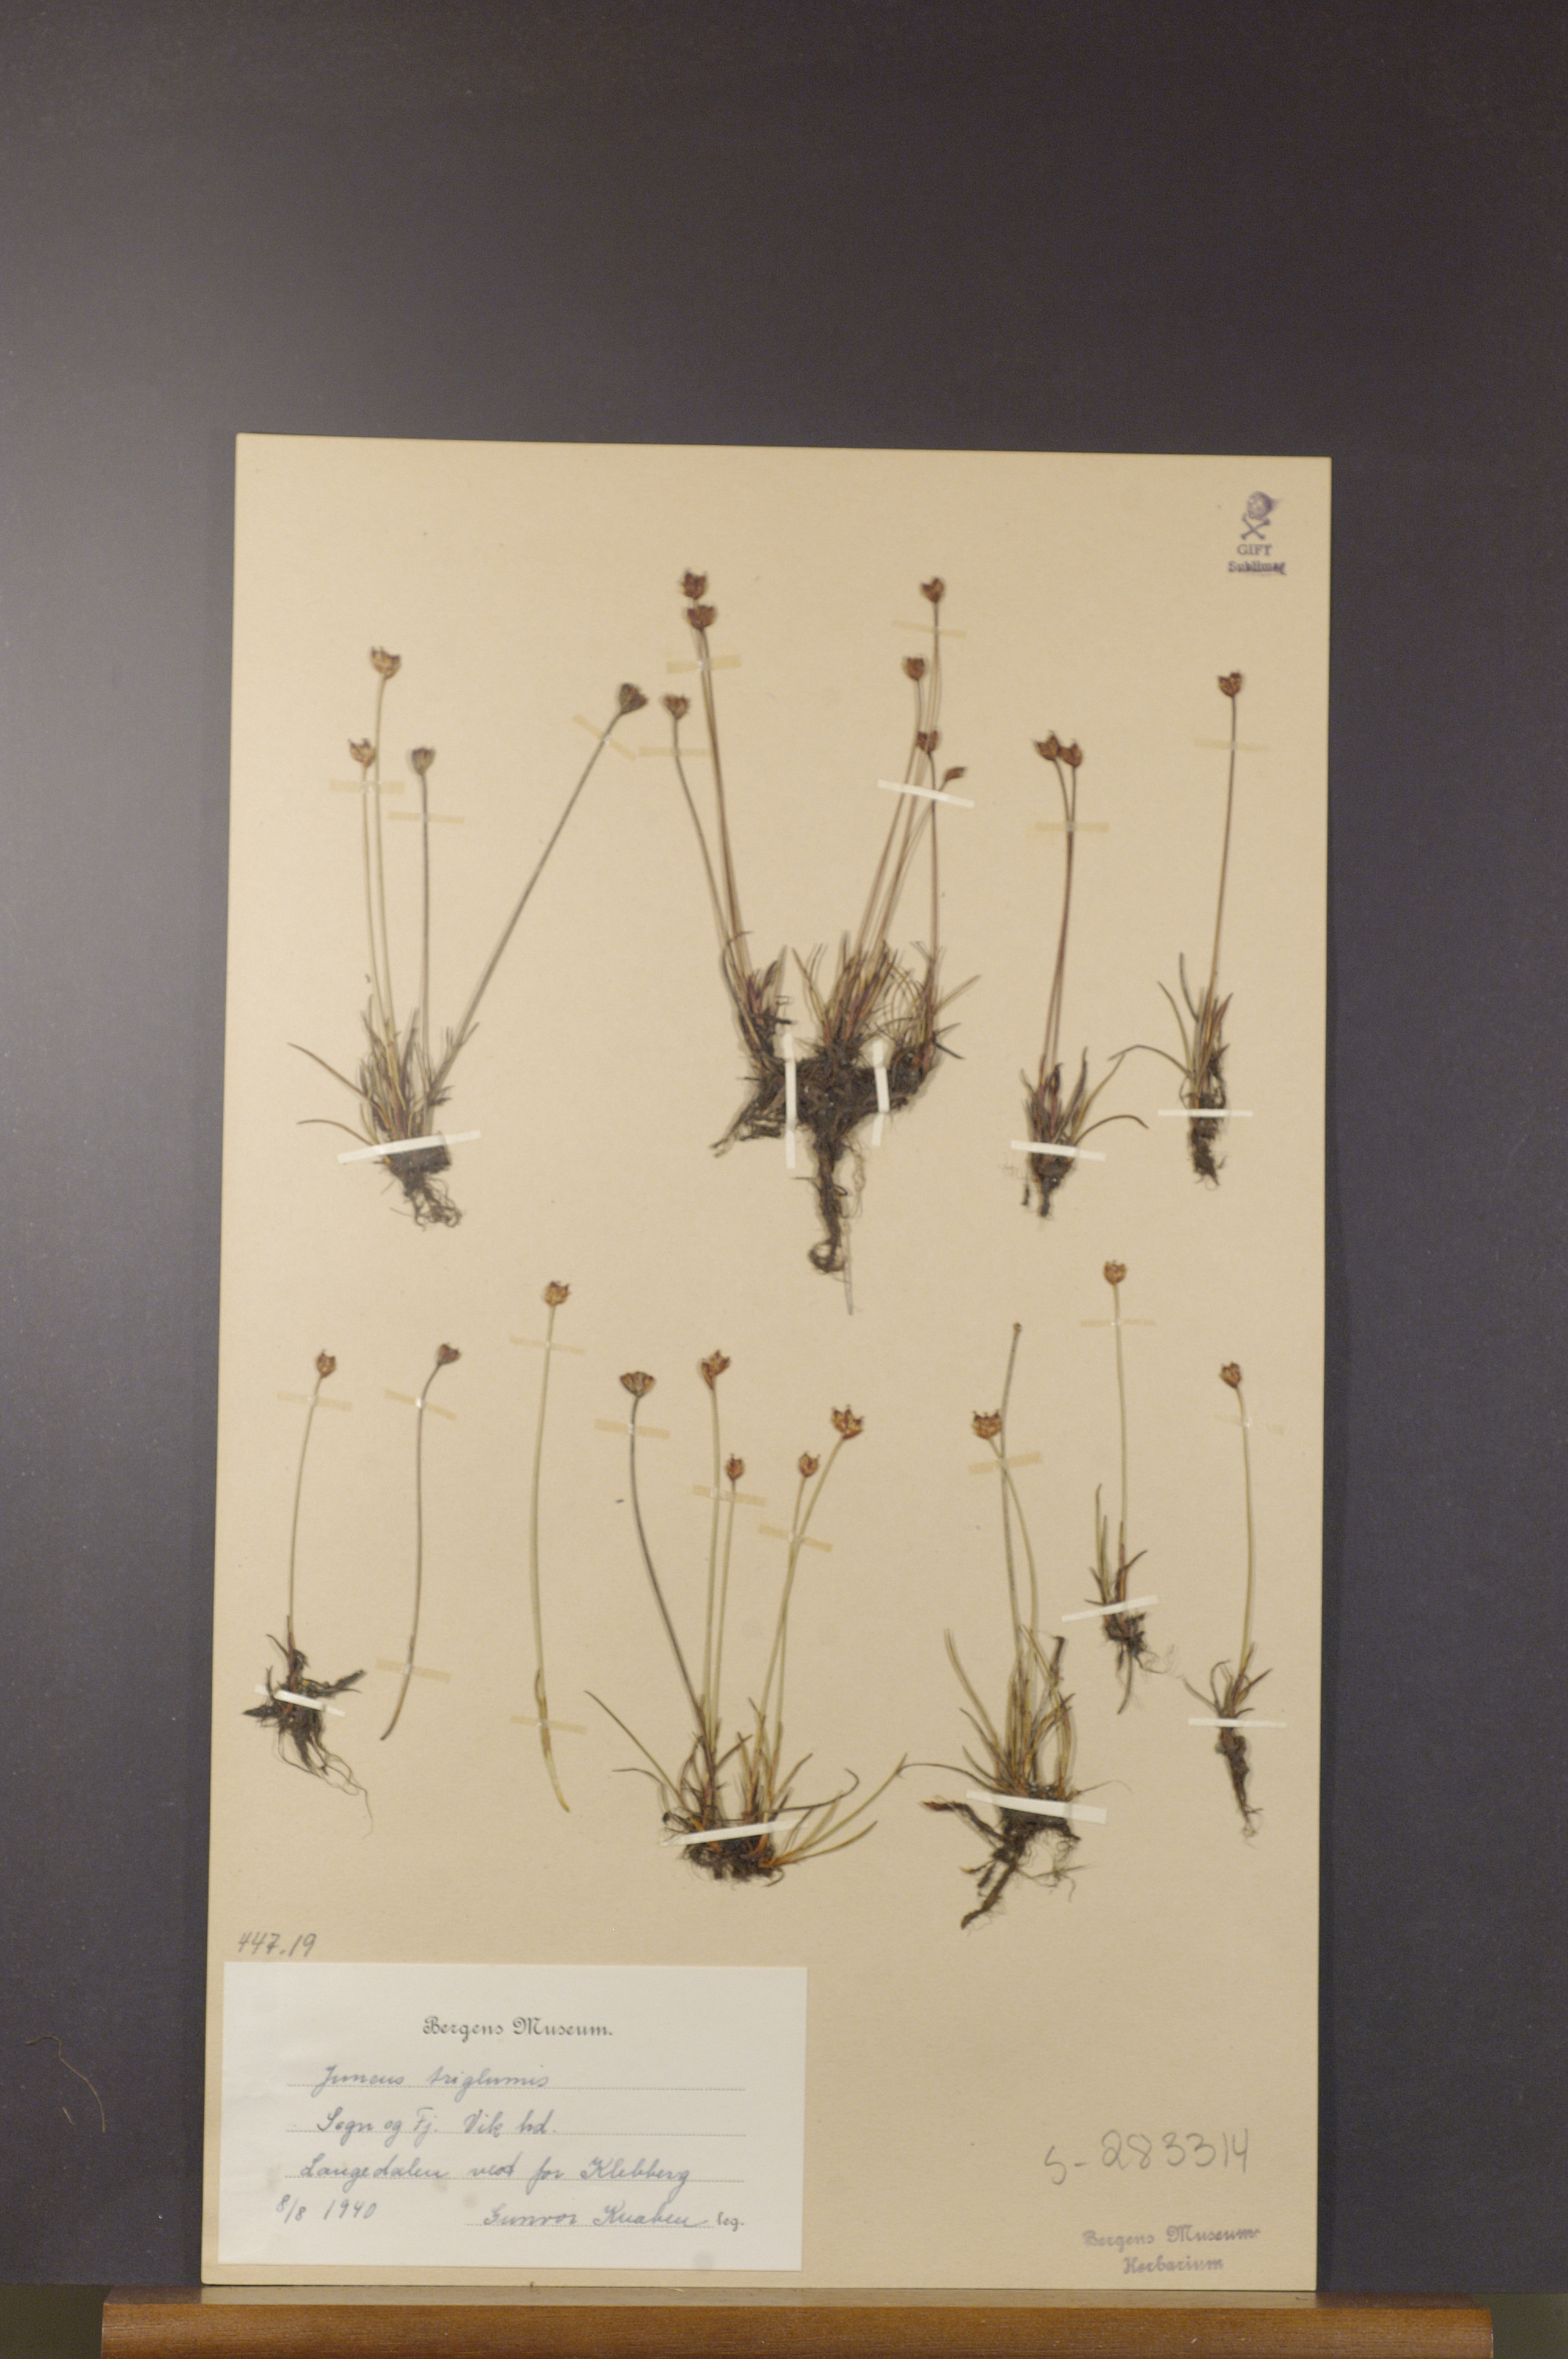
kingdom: Plantae
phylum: Tracheophyta
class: Liliopsida
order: Poales
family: Juncaceae
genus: Juncus
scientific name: Juncus triglumis
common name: Three-flowered rush
